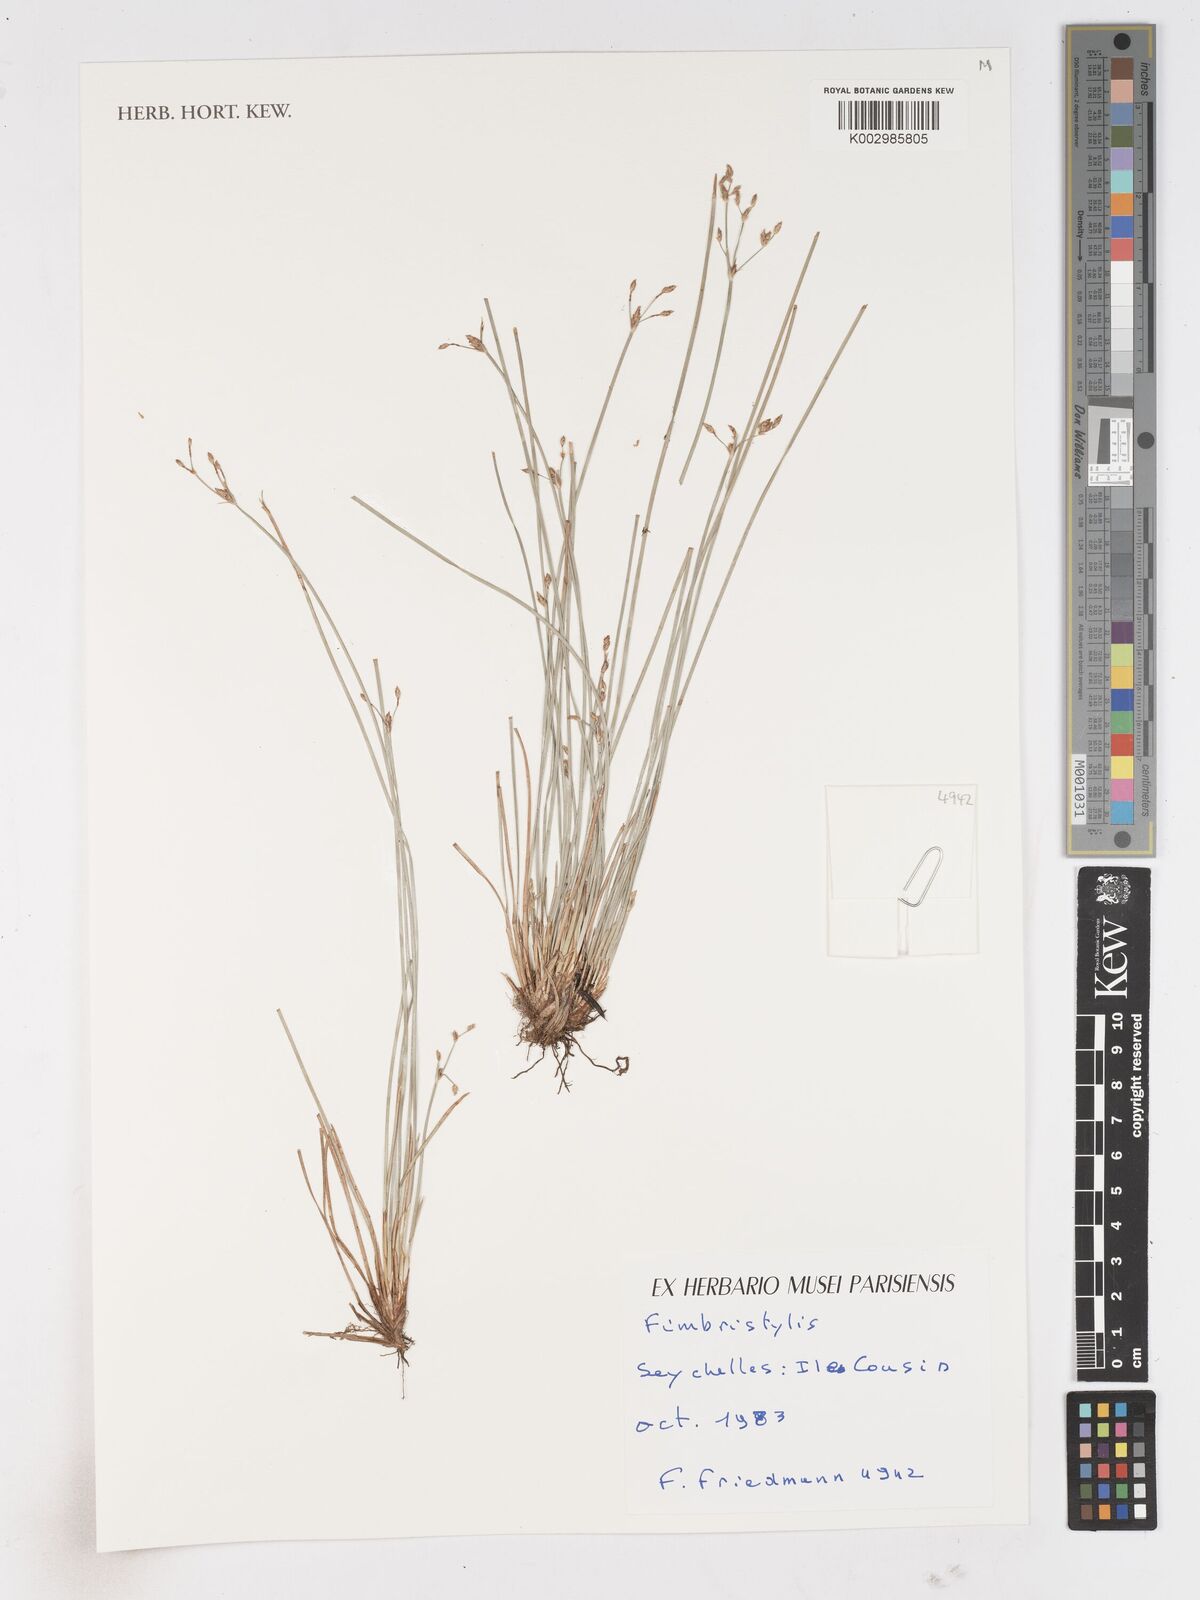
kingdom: Plantae
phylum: Tracheophyta
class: Liliopsida
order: Poales
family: Cyperaceae
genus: Fimbristylis
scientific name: Fimbristylis
